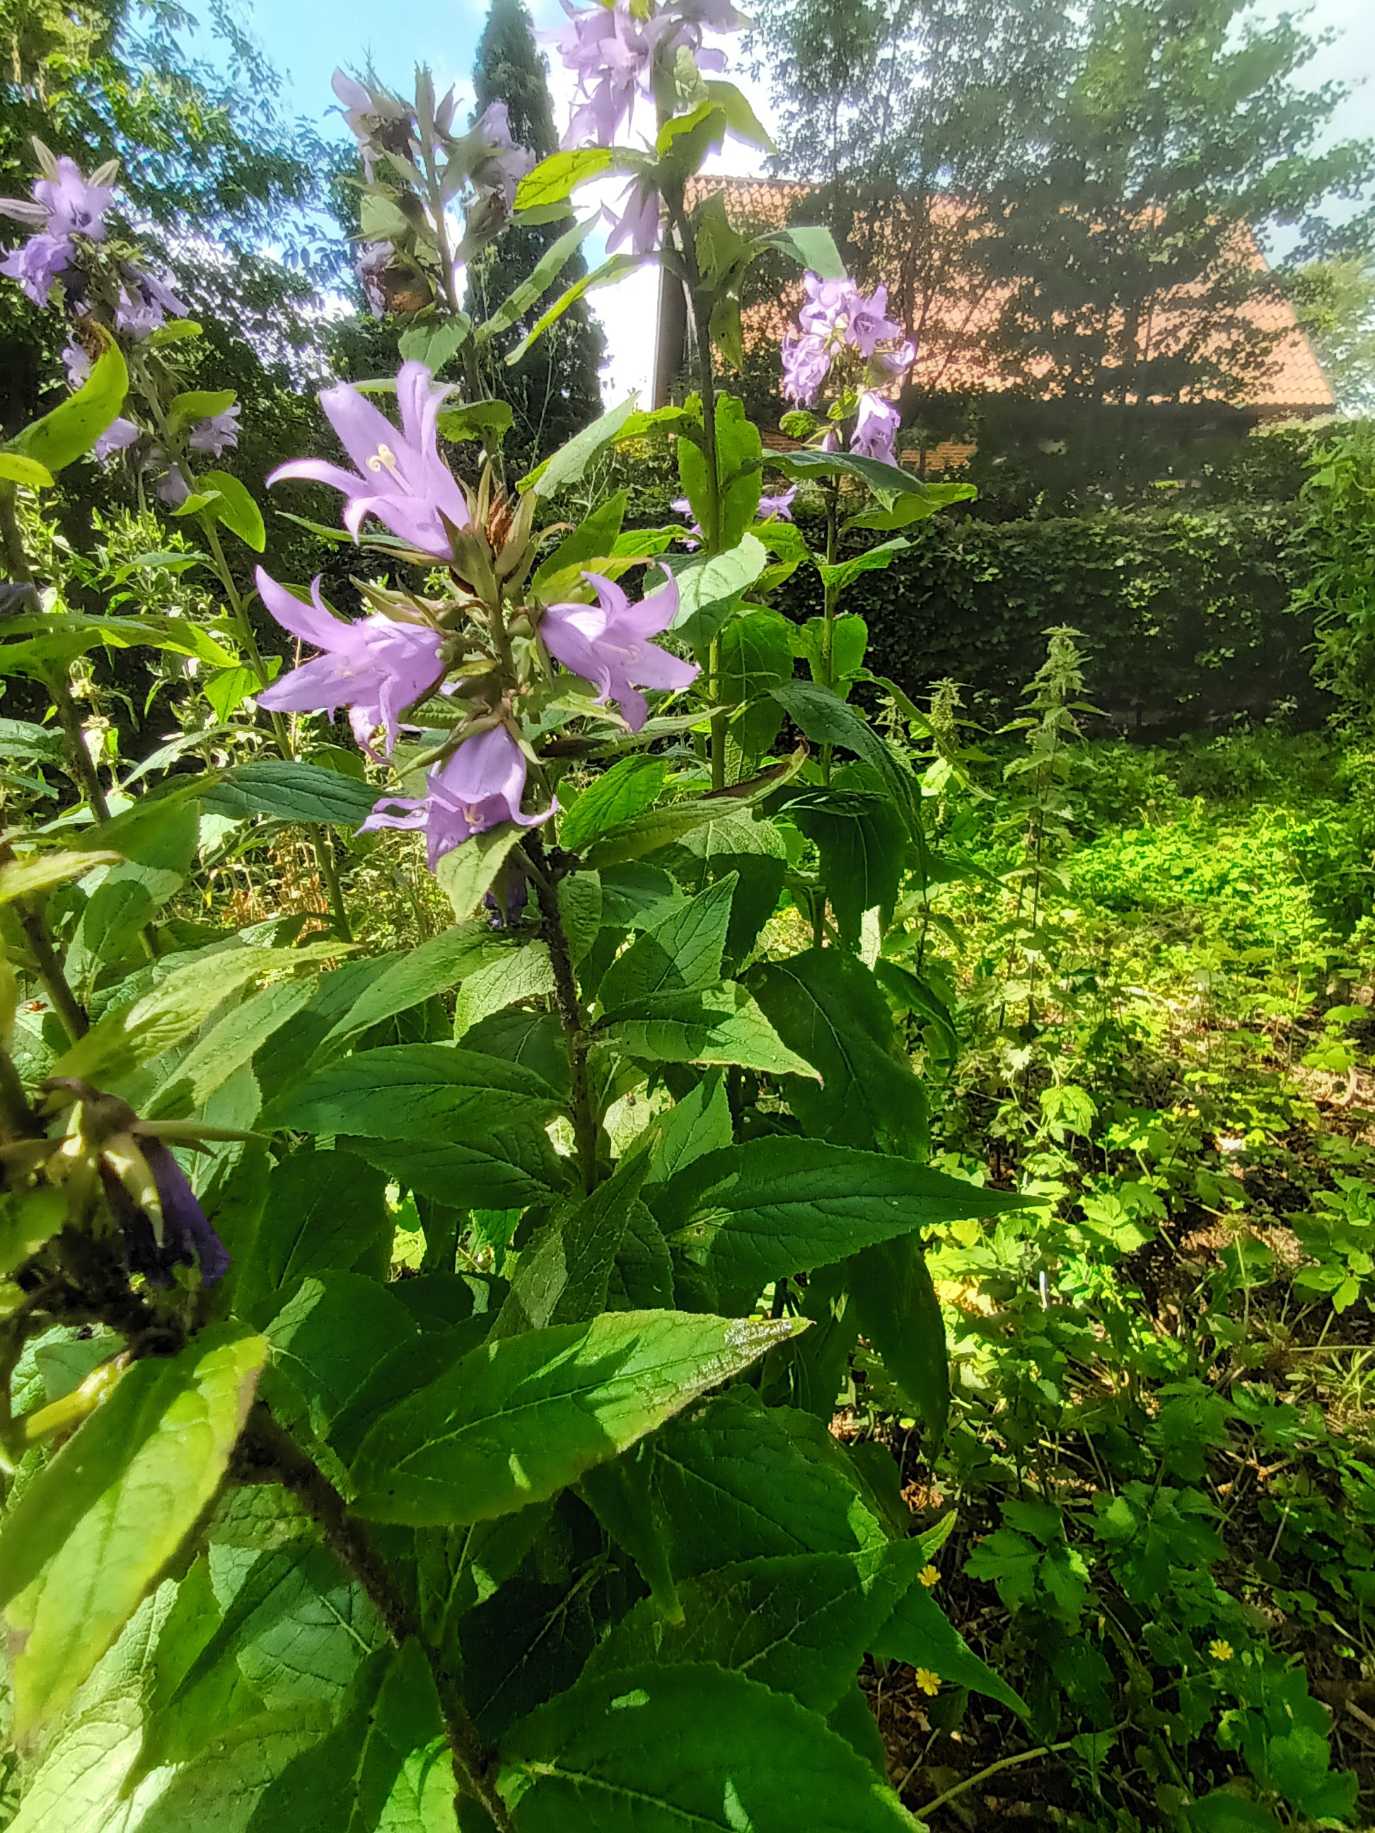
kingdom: Plantae
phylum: Tracheophyta
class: Magnoliopsida
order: Asterales
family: Campanulaceae
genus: Campanula
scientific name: Campanula latifolia
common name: Bredbladet klokke
